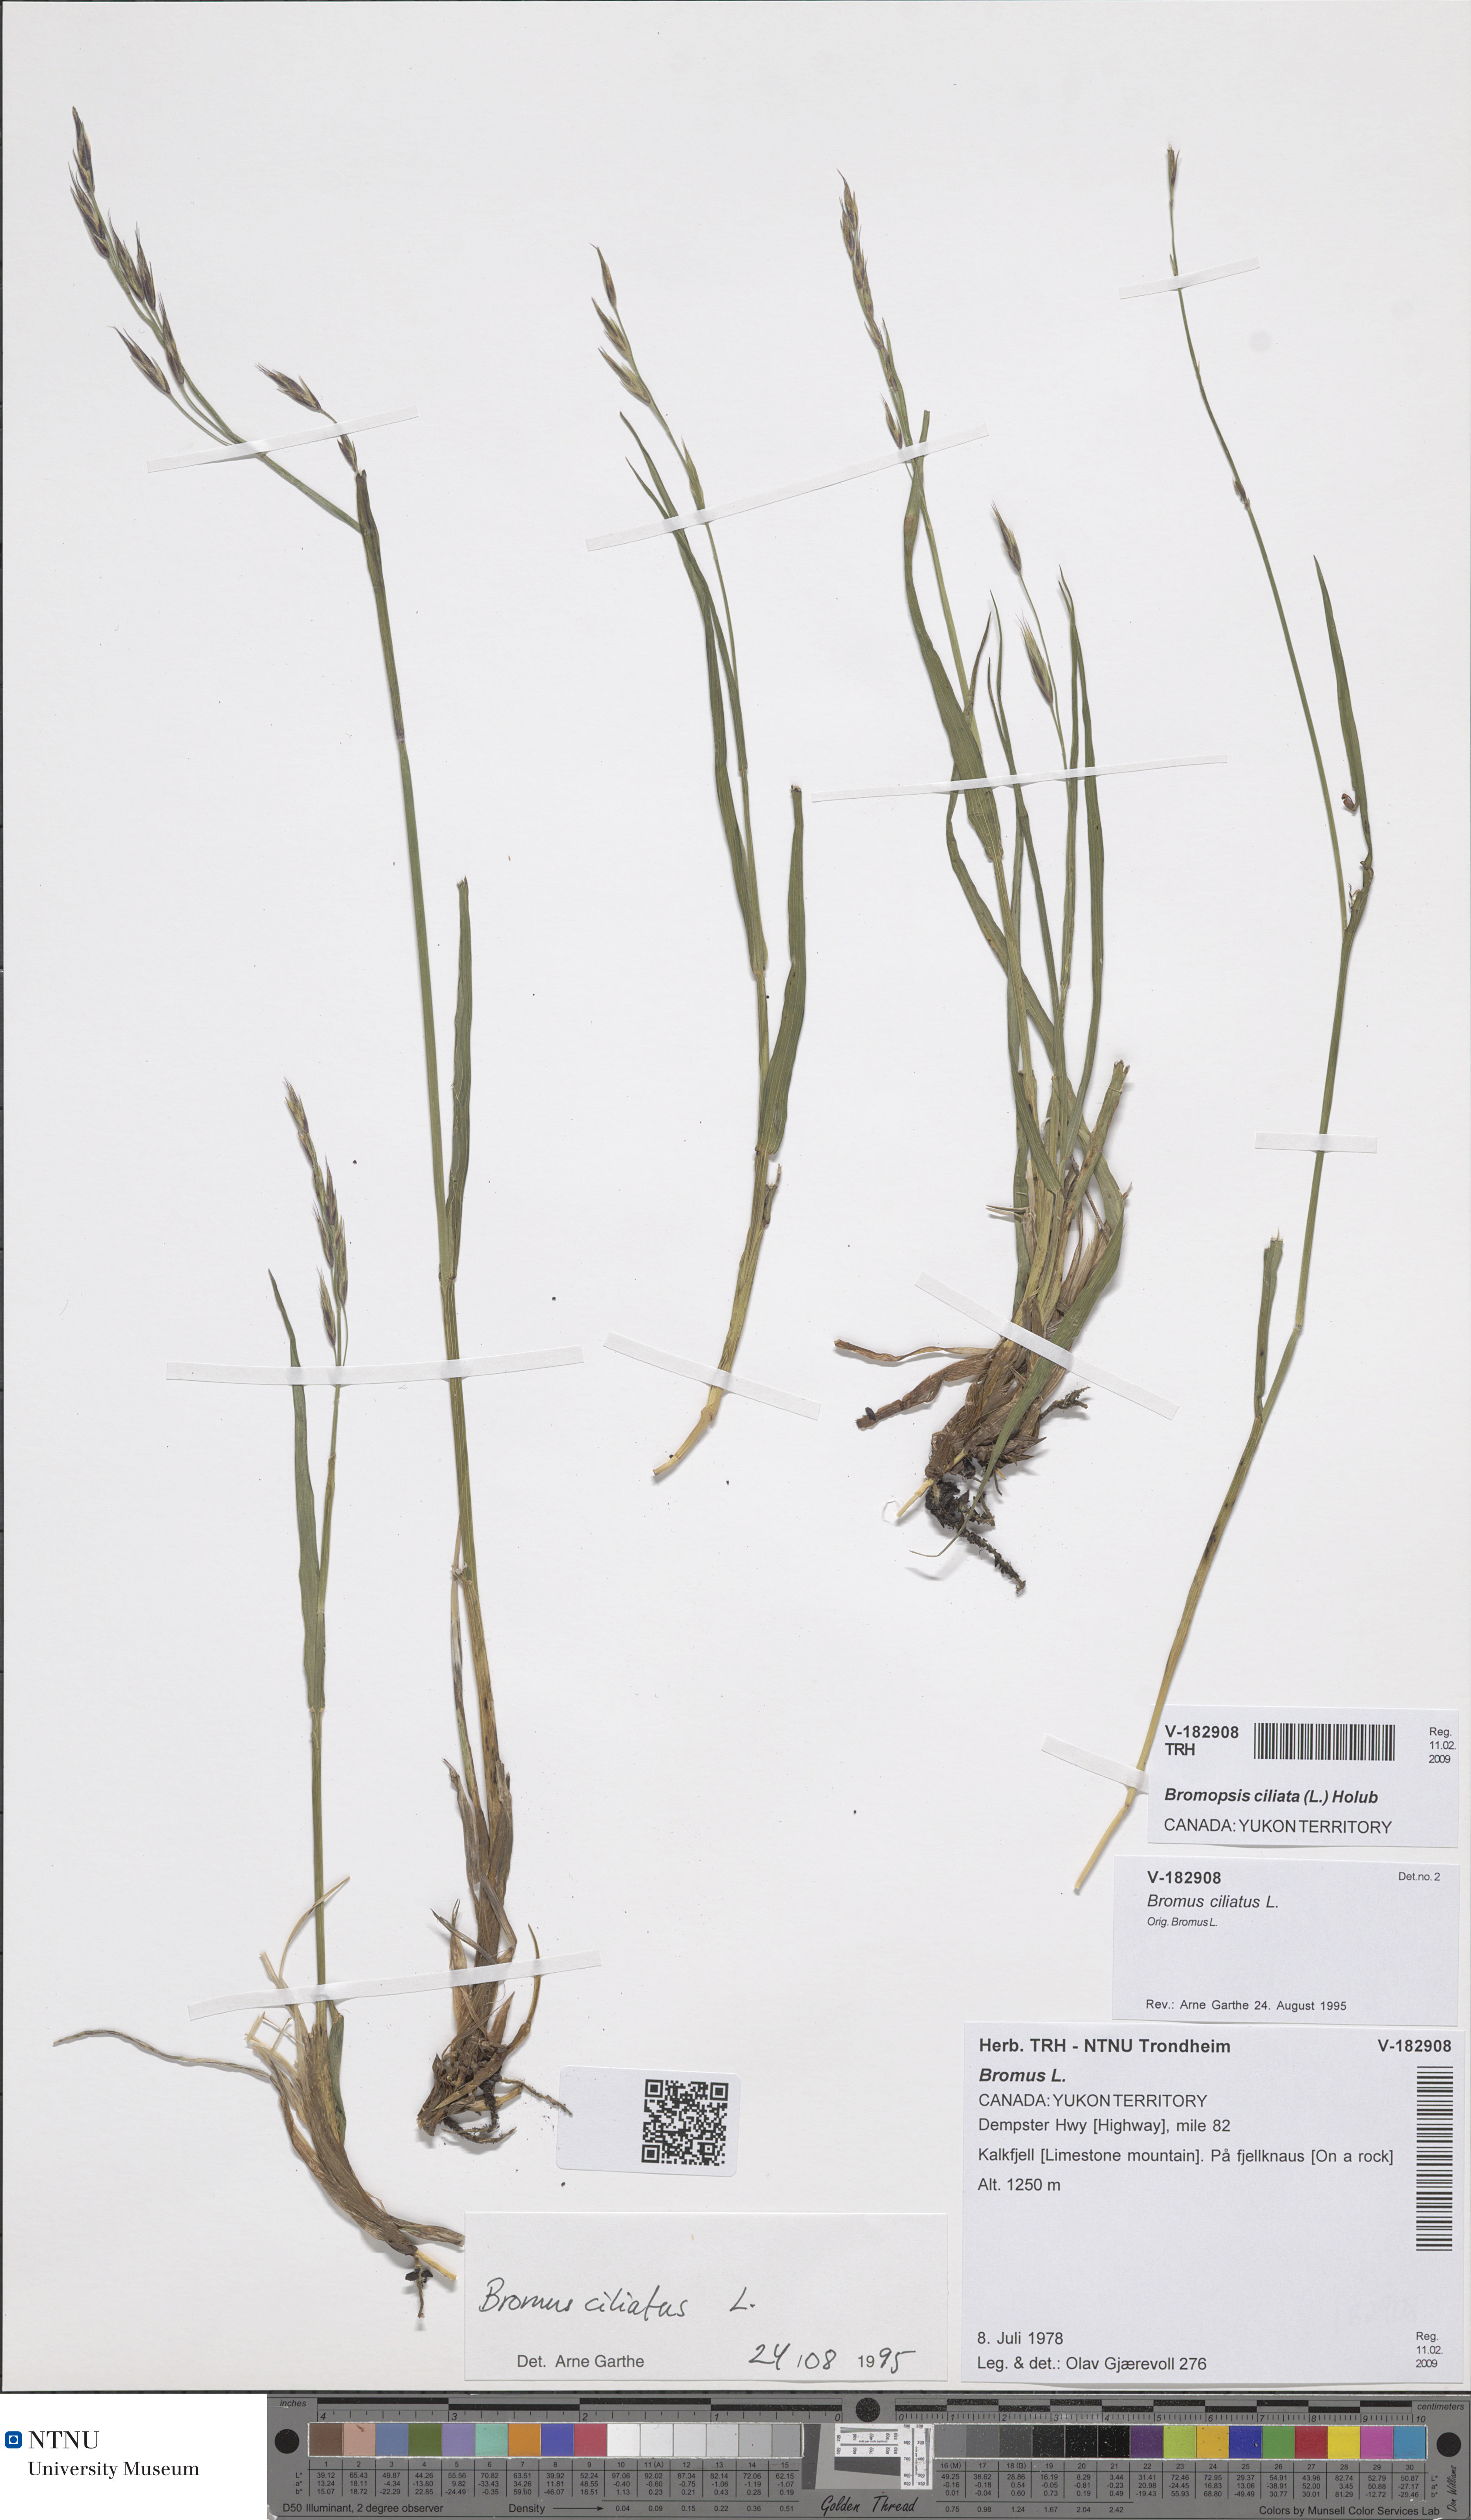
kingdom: Plantae
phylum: Tracheophyta
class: Liliopsida
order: Poales
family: Poaceae
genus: Bromus
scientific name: Bromus ciliatus
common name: Fringe brome
